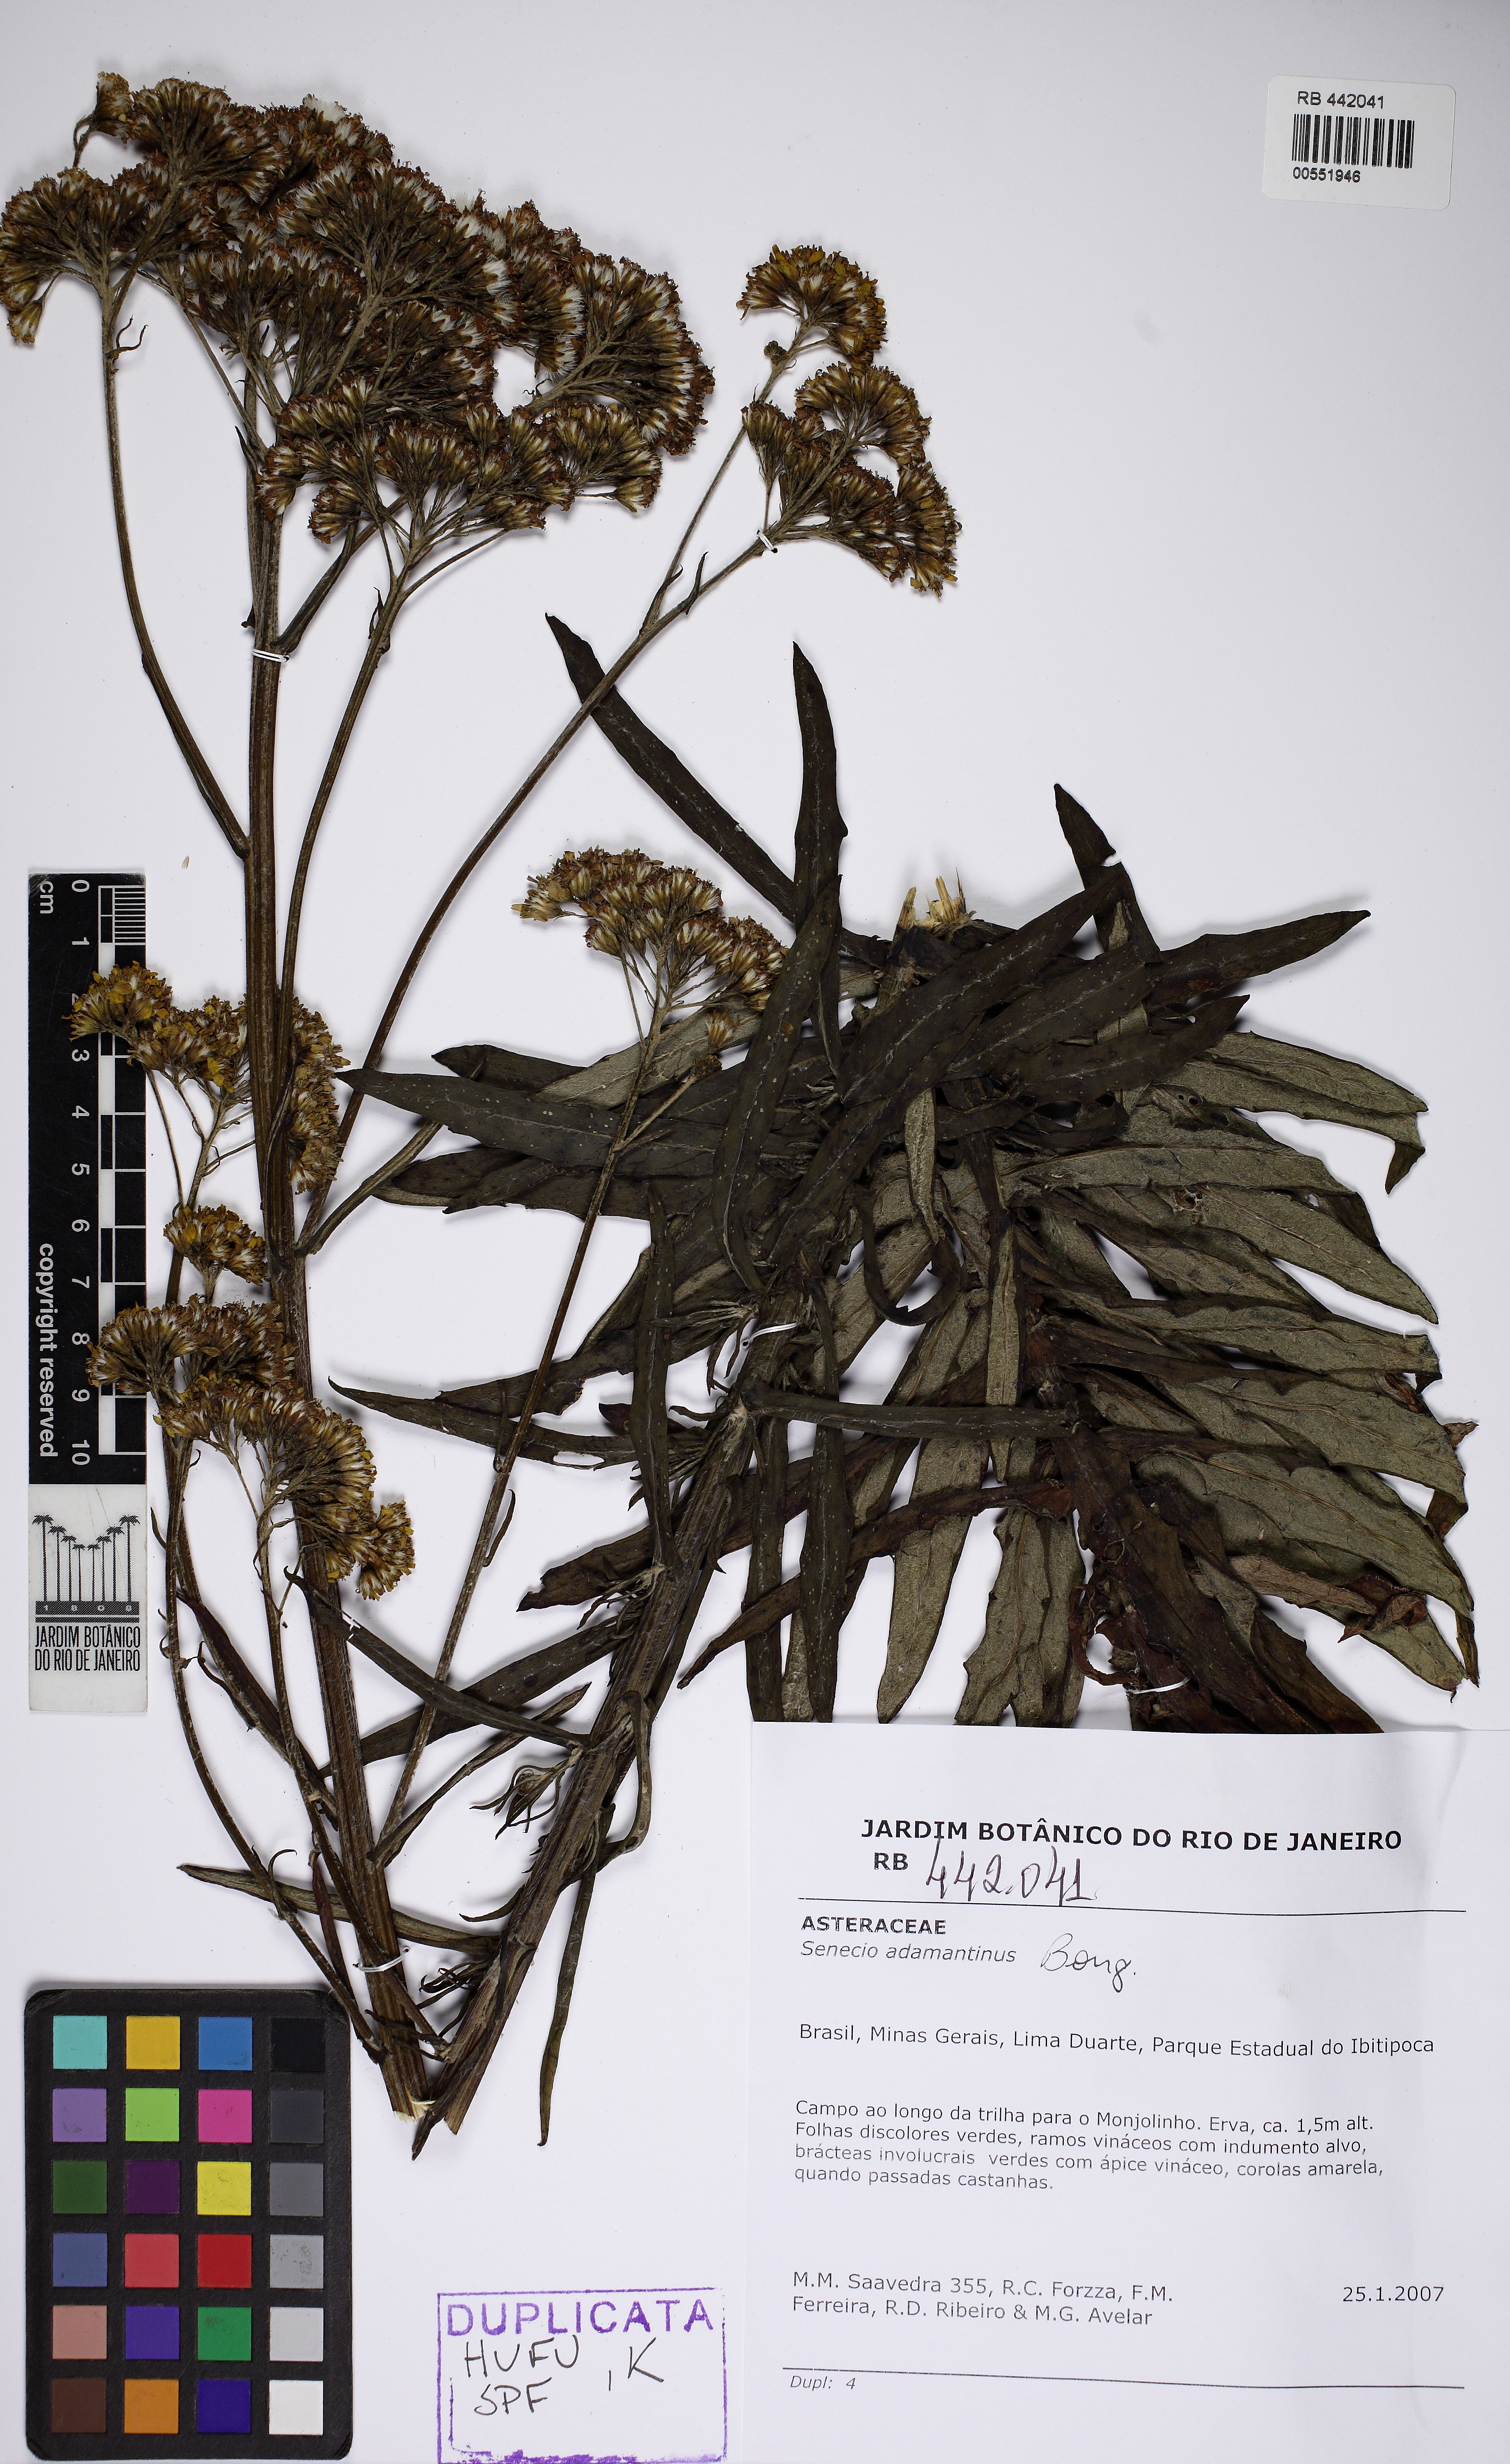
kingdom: Plantae
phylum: Tracheophyta
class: Magnoliopsida
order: Asterales
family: Asteraceae
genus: Senecio
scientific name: Senecio adamantinus
